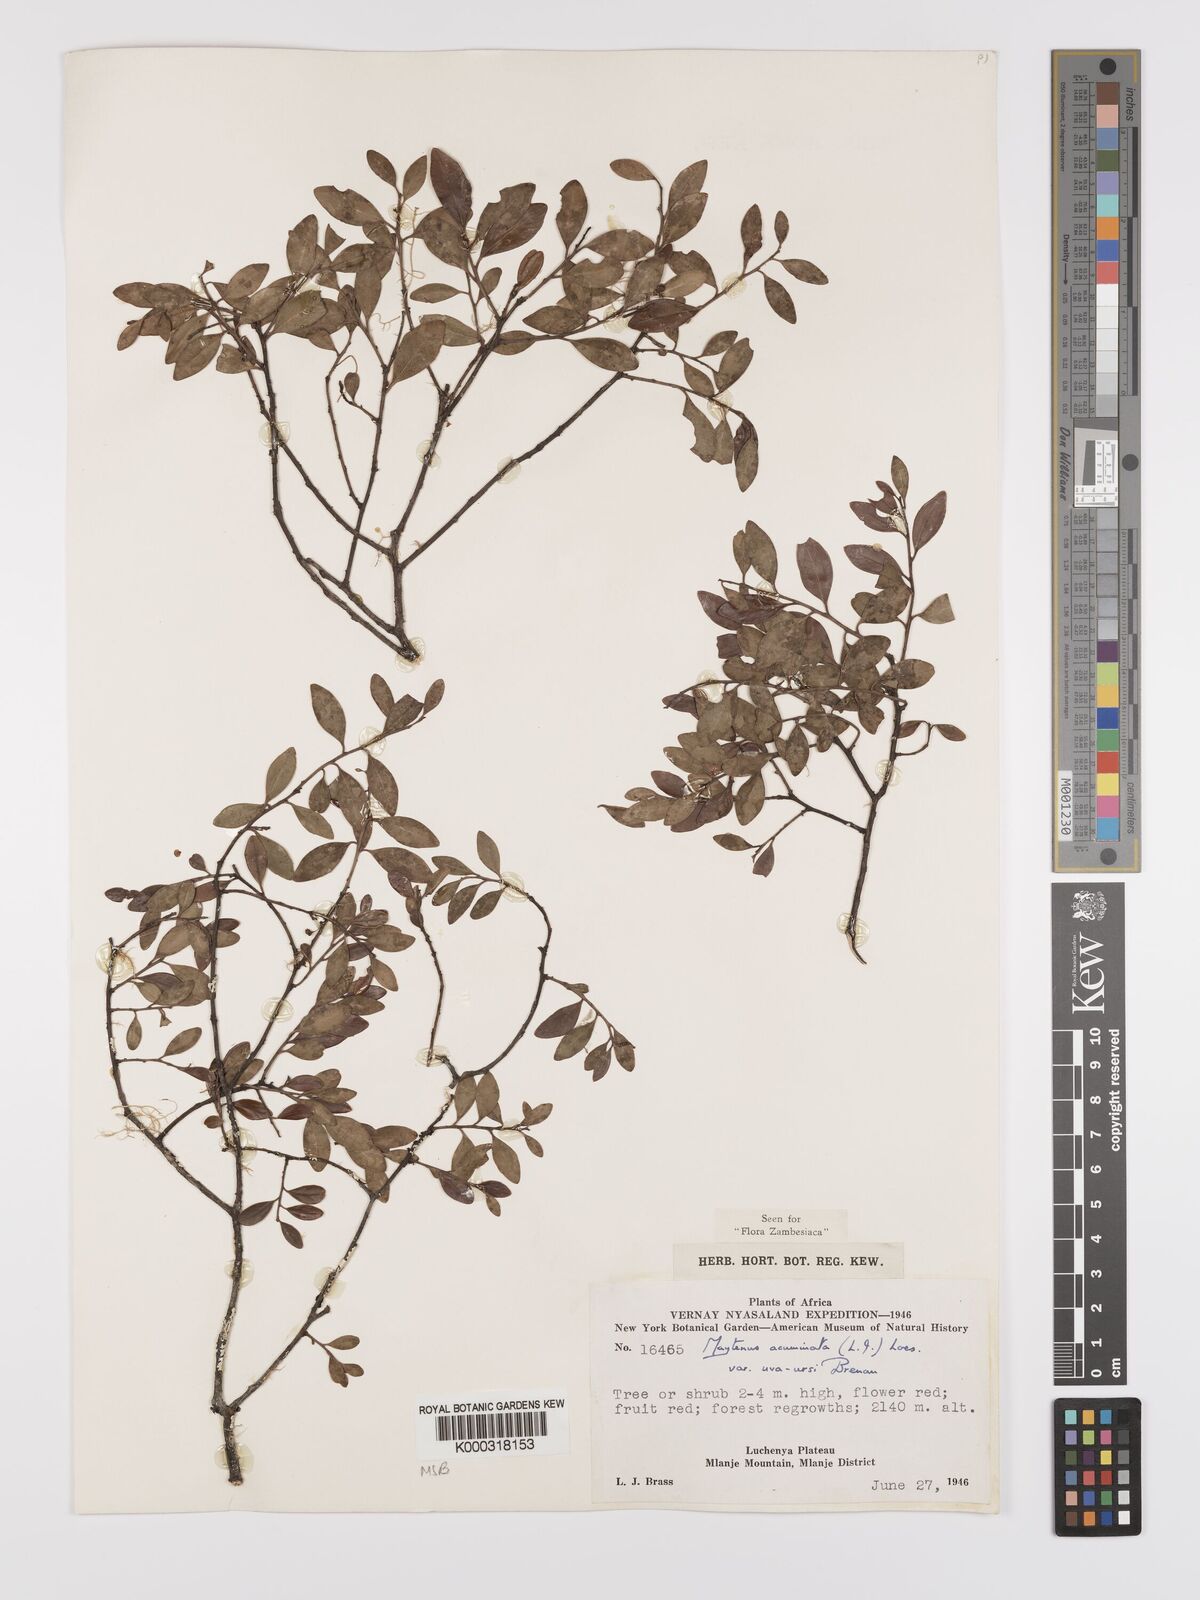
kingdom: Plantae
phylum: Tracheophyta
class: Magnoliopsida
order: Celastrales
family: Celastraceae
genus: Maytenus
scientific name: Maytenus
